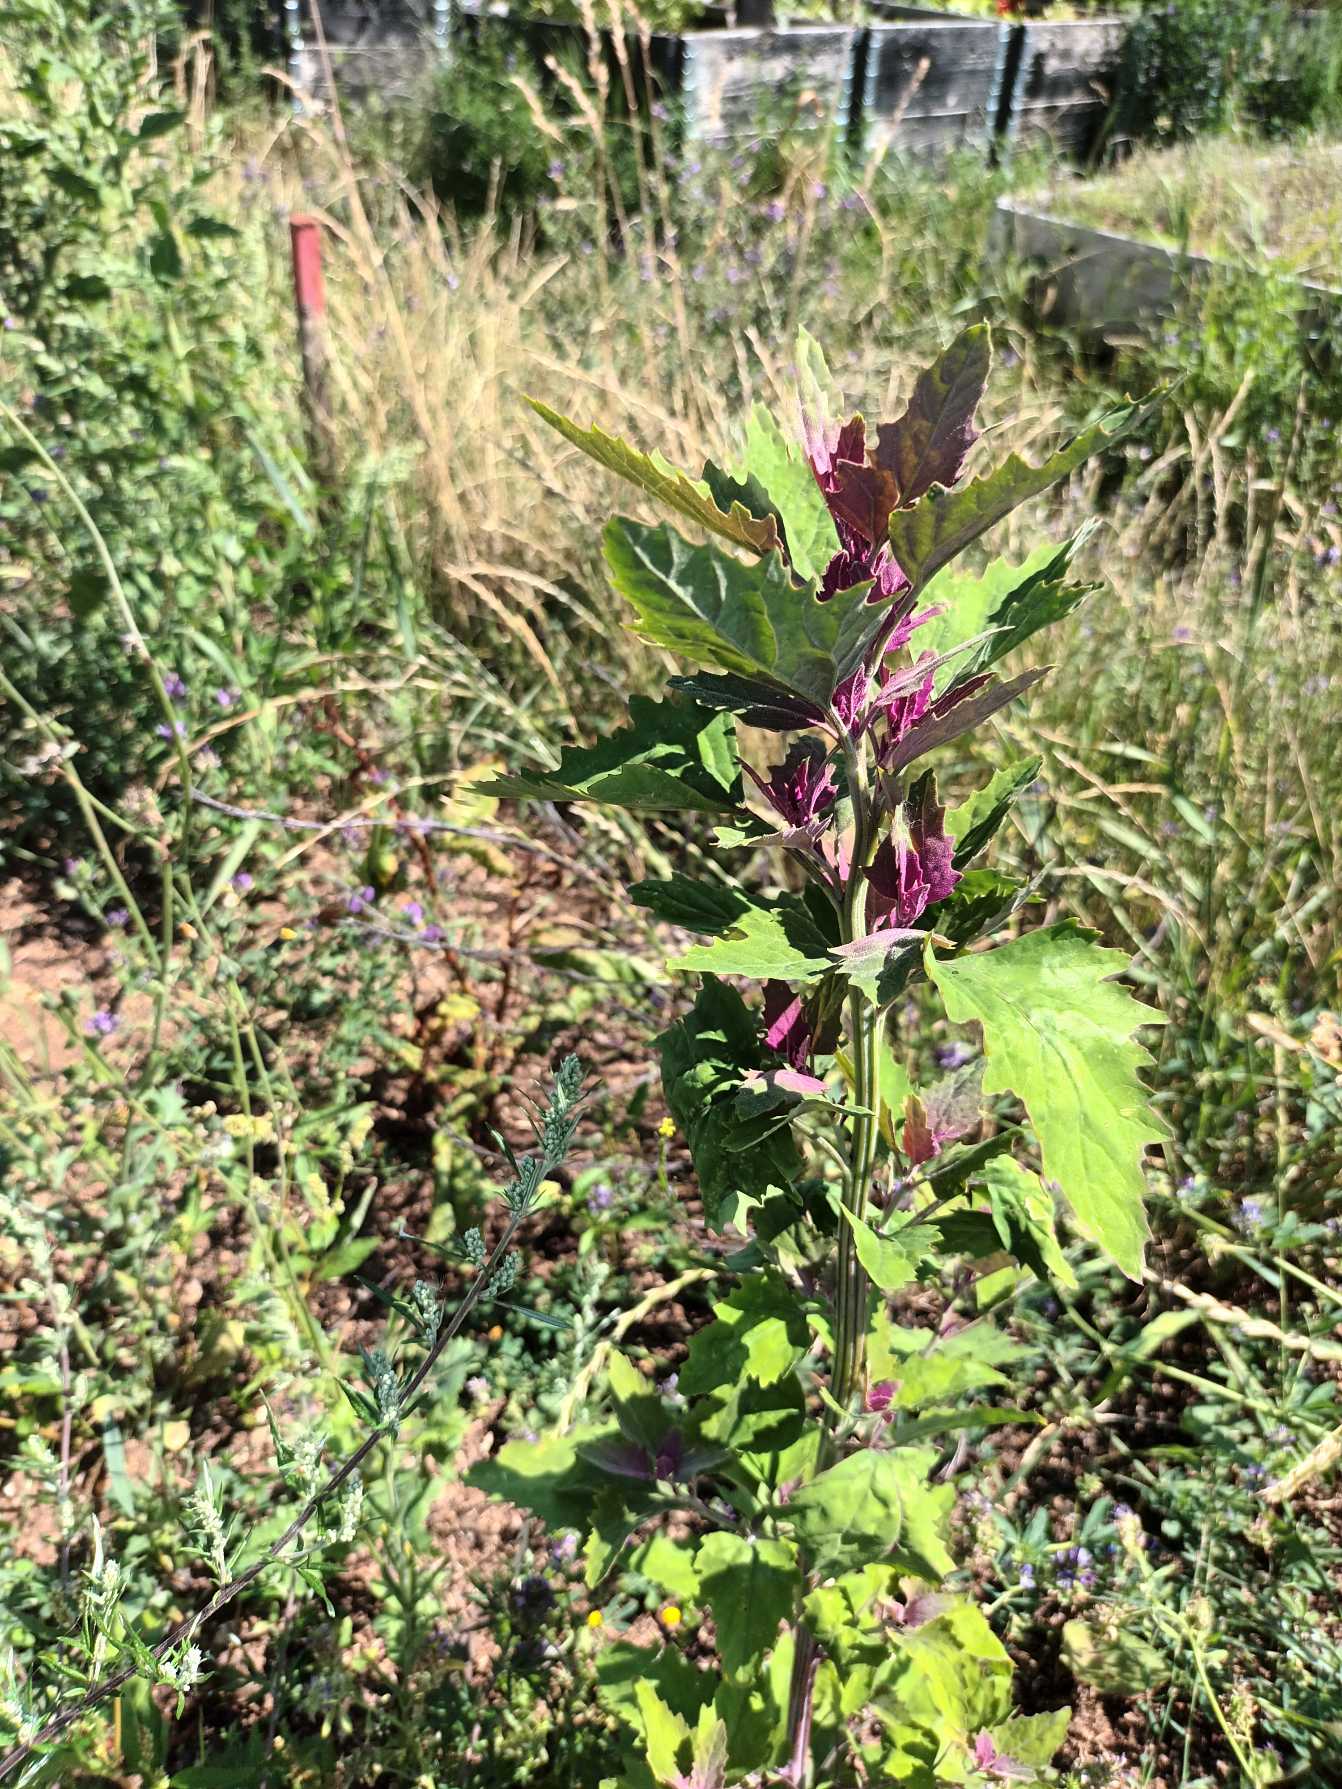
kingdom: Plantae
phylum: Tracheophyta
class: Magnoliopsida
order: Caryophyllales
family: Amaranthaceae
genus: Chenopodium
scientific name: Chenopodium giganteum
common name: Kæmpe-gåsefod
